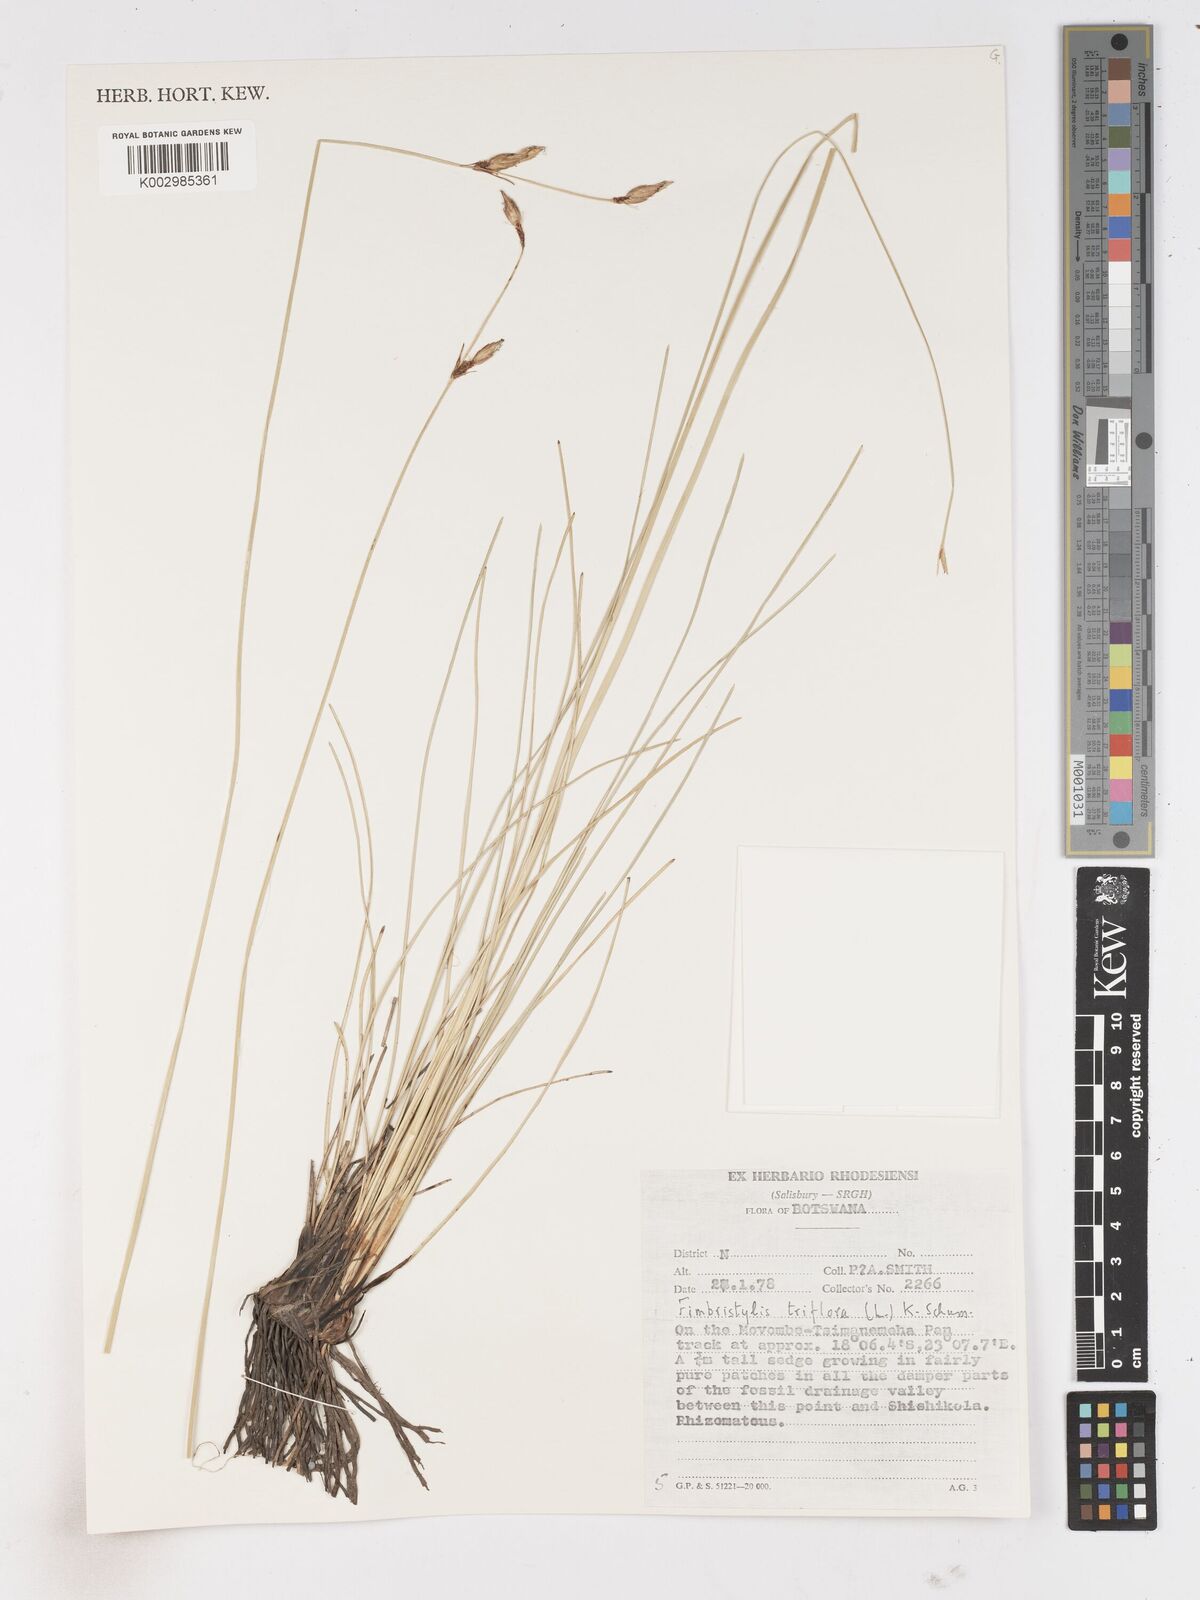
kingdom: Plantae
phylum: Tracheophyta
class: Liliopsida
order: Poales
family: Cyperaceae
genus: Abildgaardia
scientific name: Abildgaardia triflora
